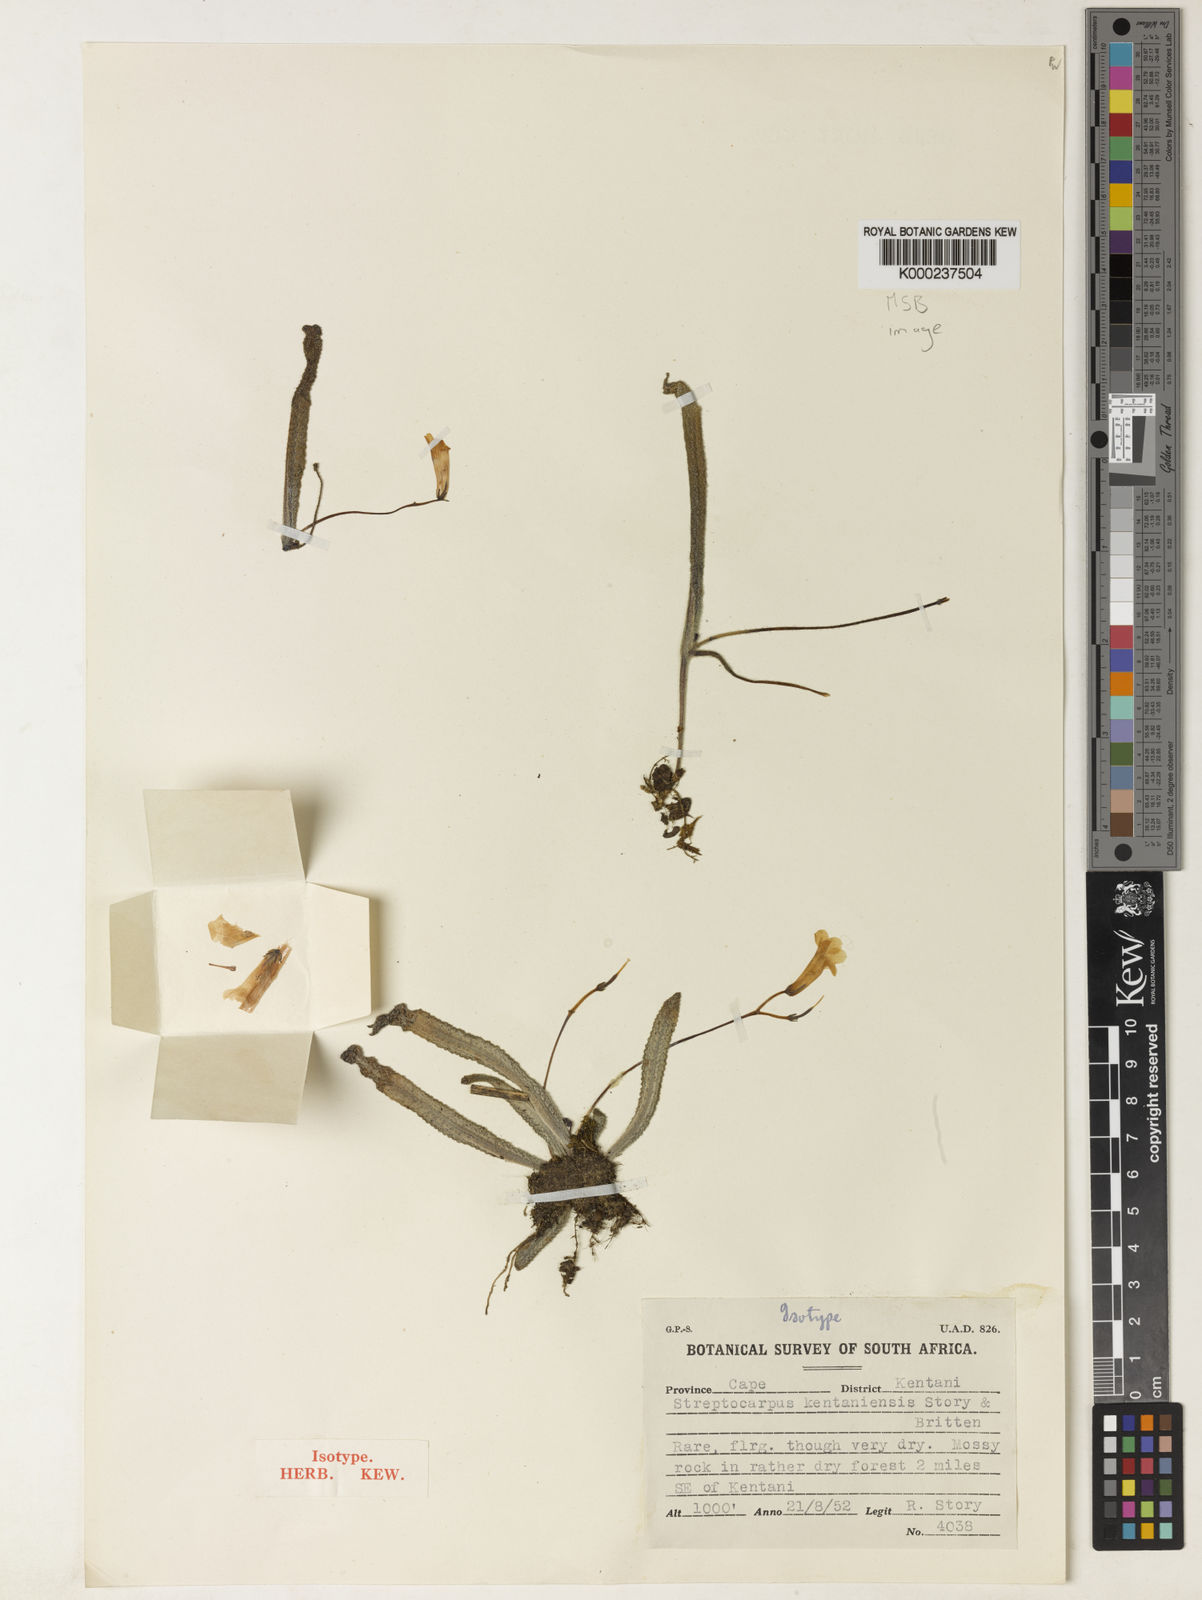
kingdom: Plantae
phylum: Tracheophyta
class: Magnoliopsida
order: Lamiales
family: Gesneriaceae
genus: Streptocarpus
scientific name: Streptocarpus kentaniensis
